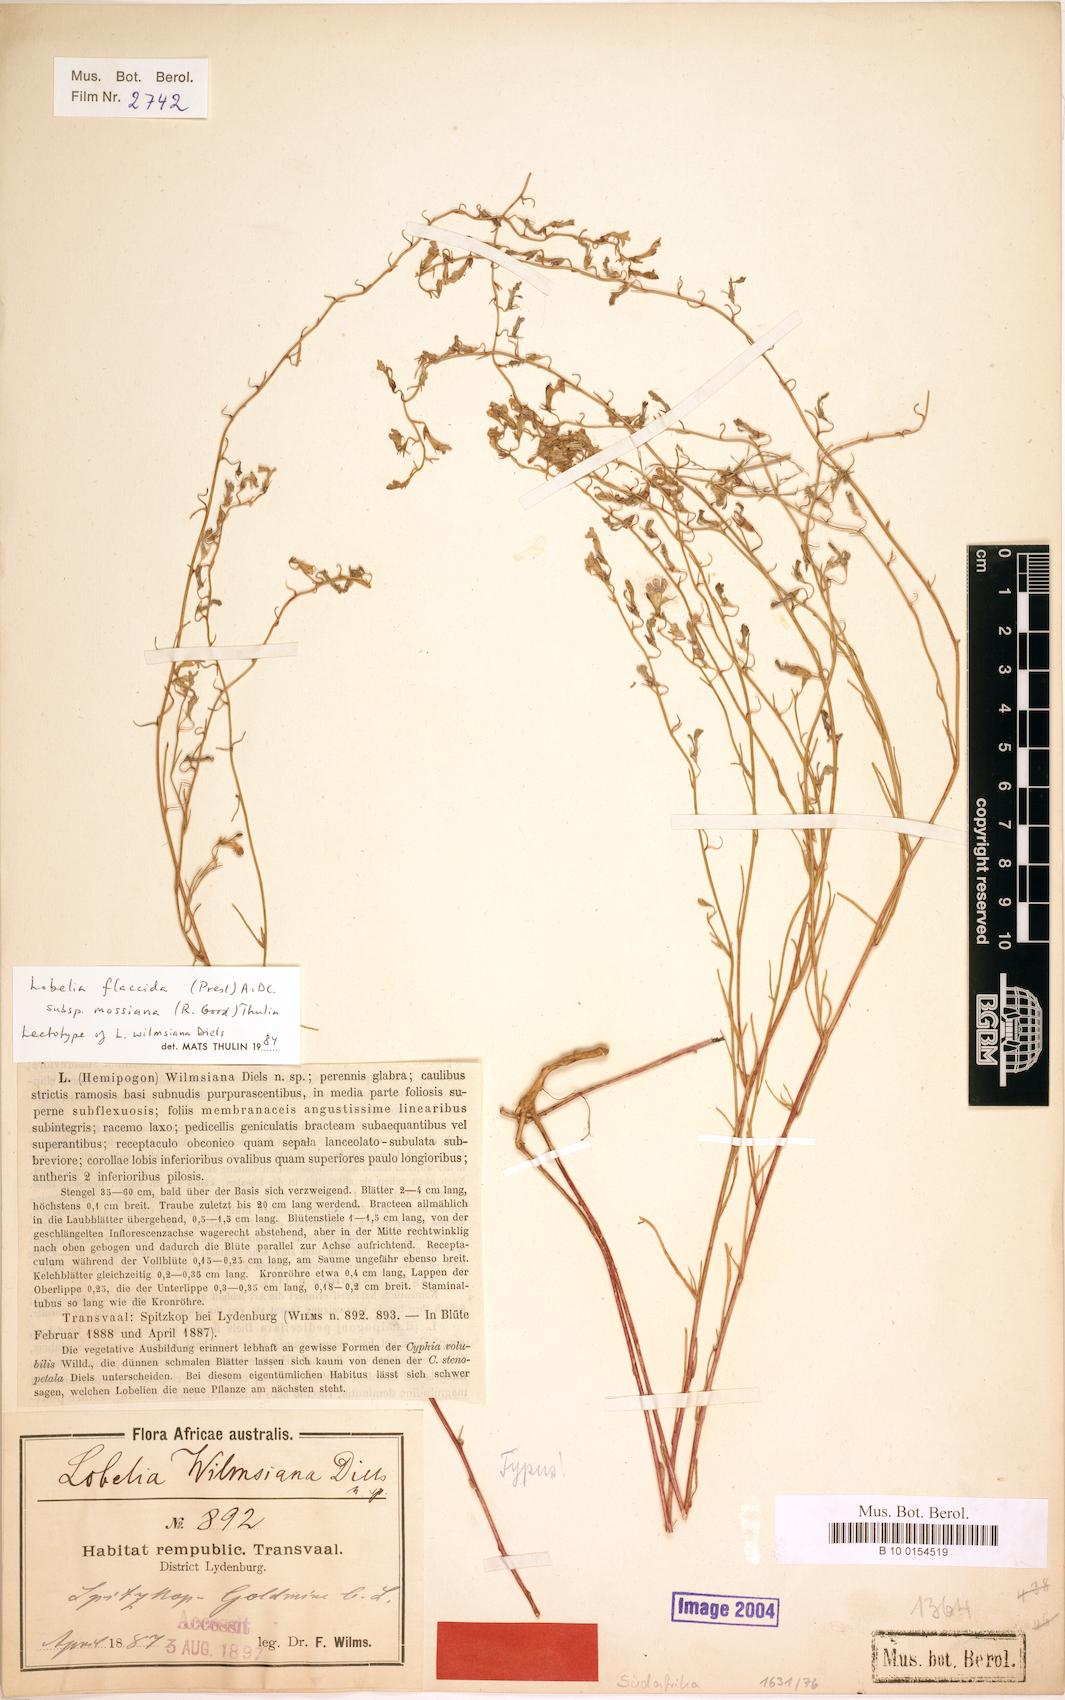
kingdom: Plantae
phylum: Tracheophyta
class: Magnoliopsida
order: Asterales
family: Campanulaceae
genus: Lobelia
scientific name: Lobelia flaccida
